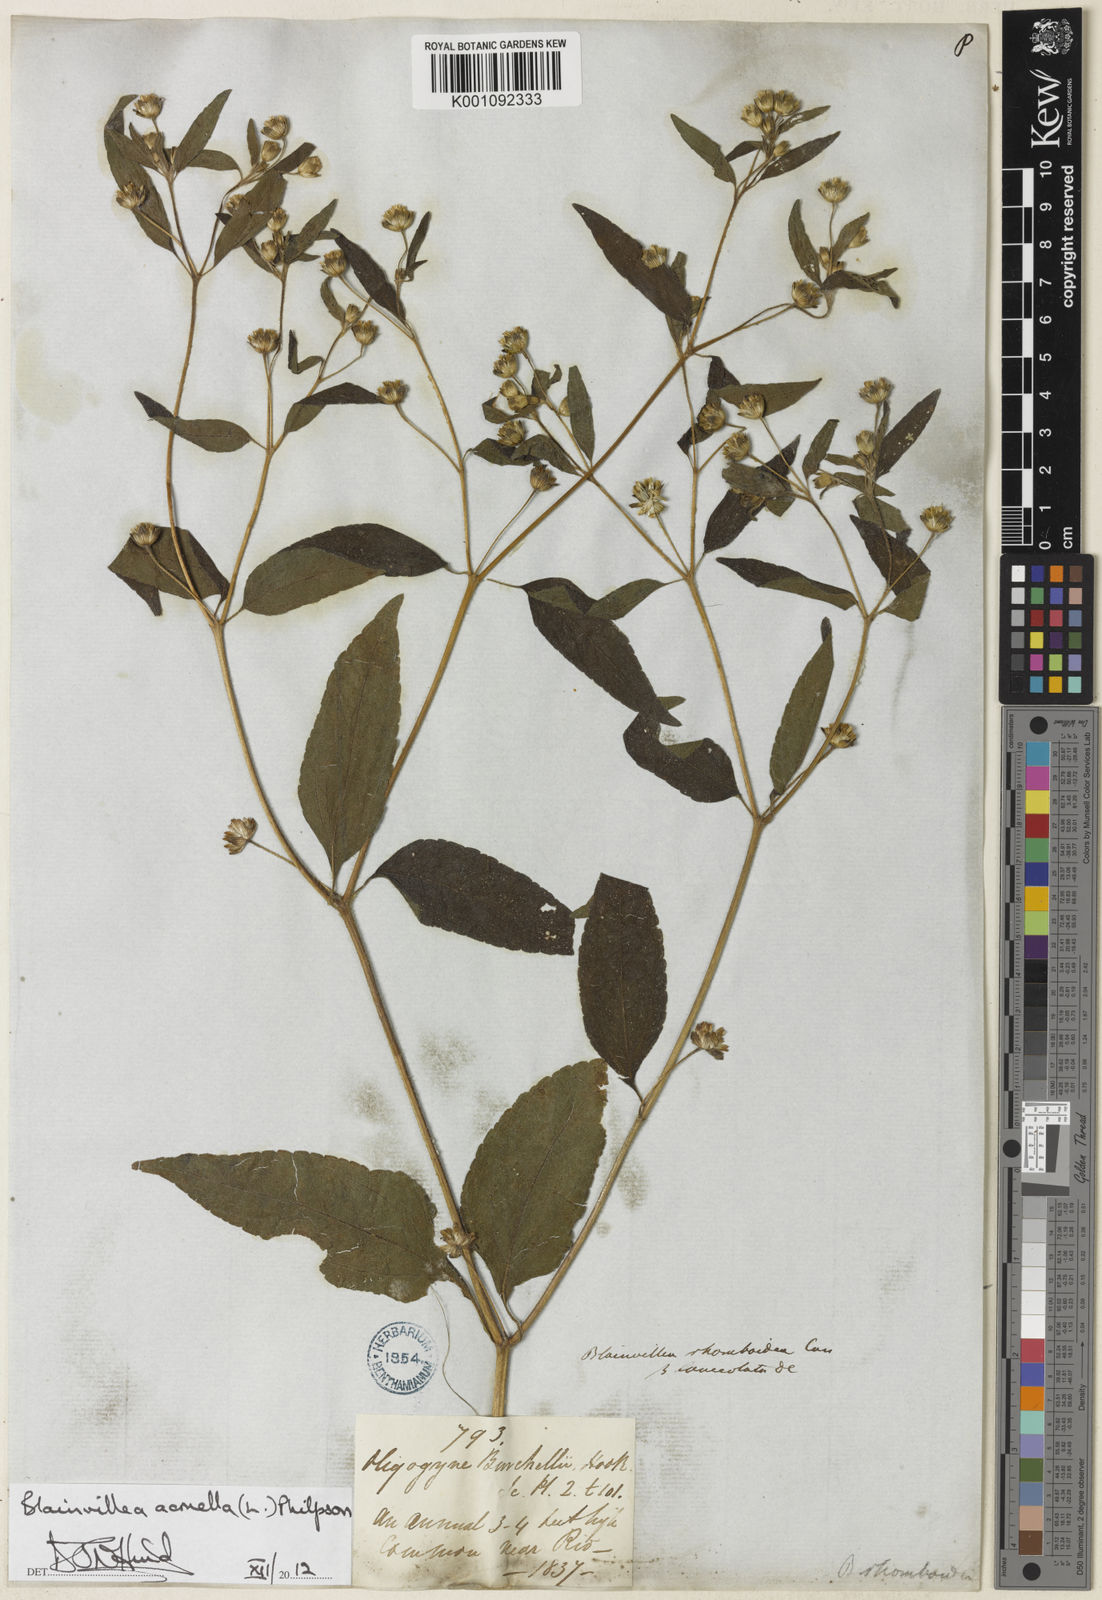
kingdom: Plantae
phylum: Tracheophyta
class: Magnoliopsida
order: Asterales
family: Asteraceae
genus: Blainvillea
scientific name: Blainvillea acmella
